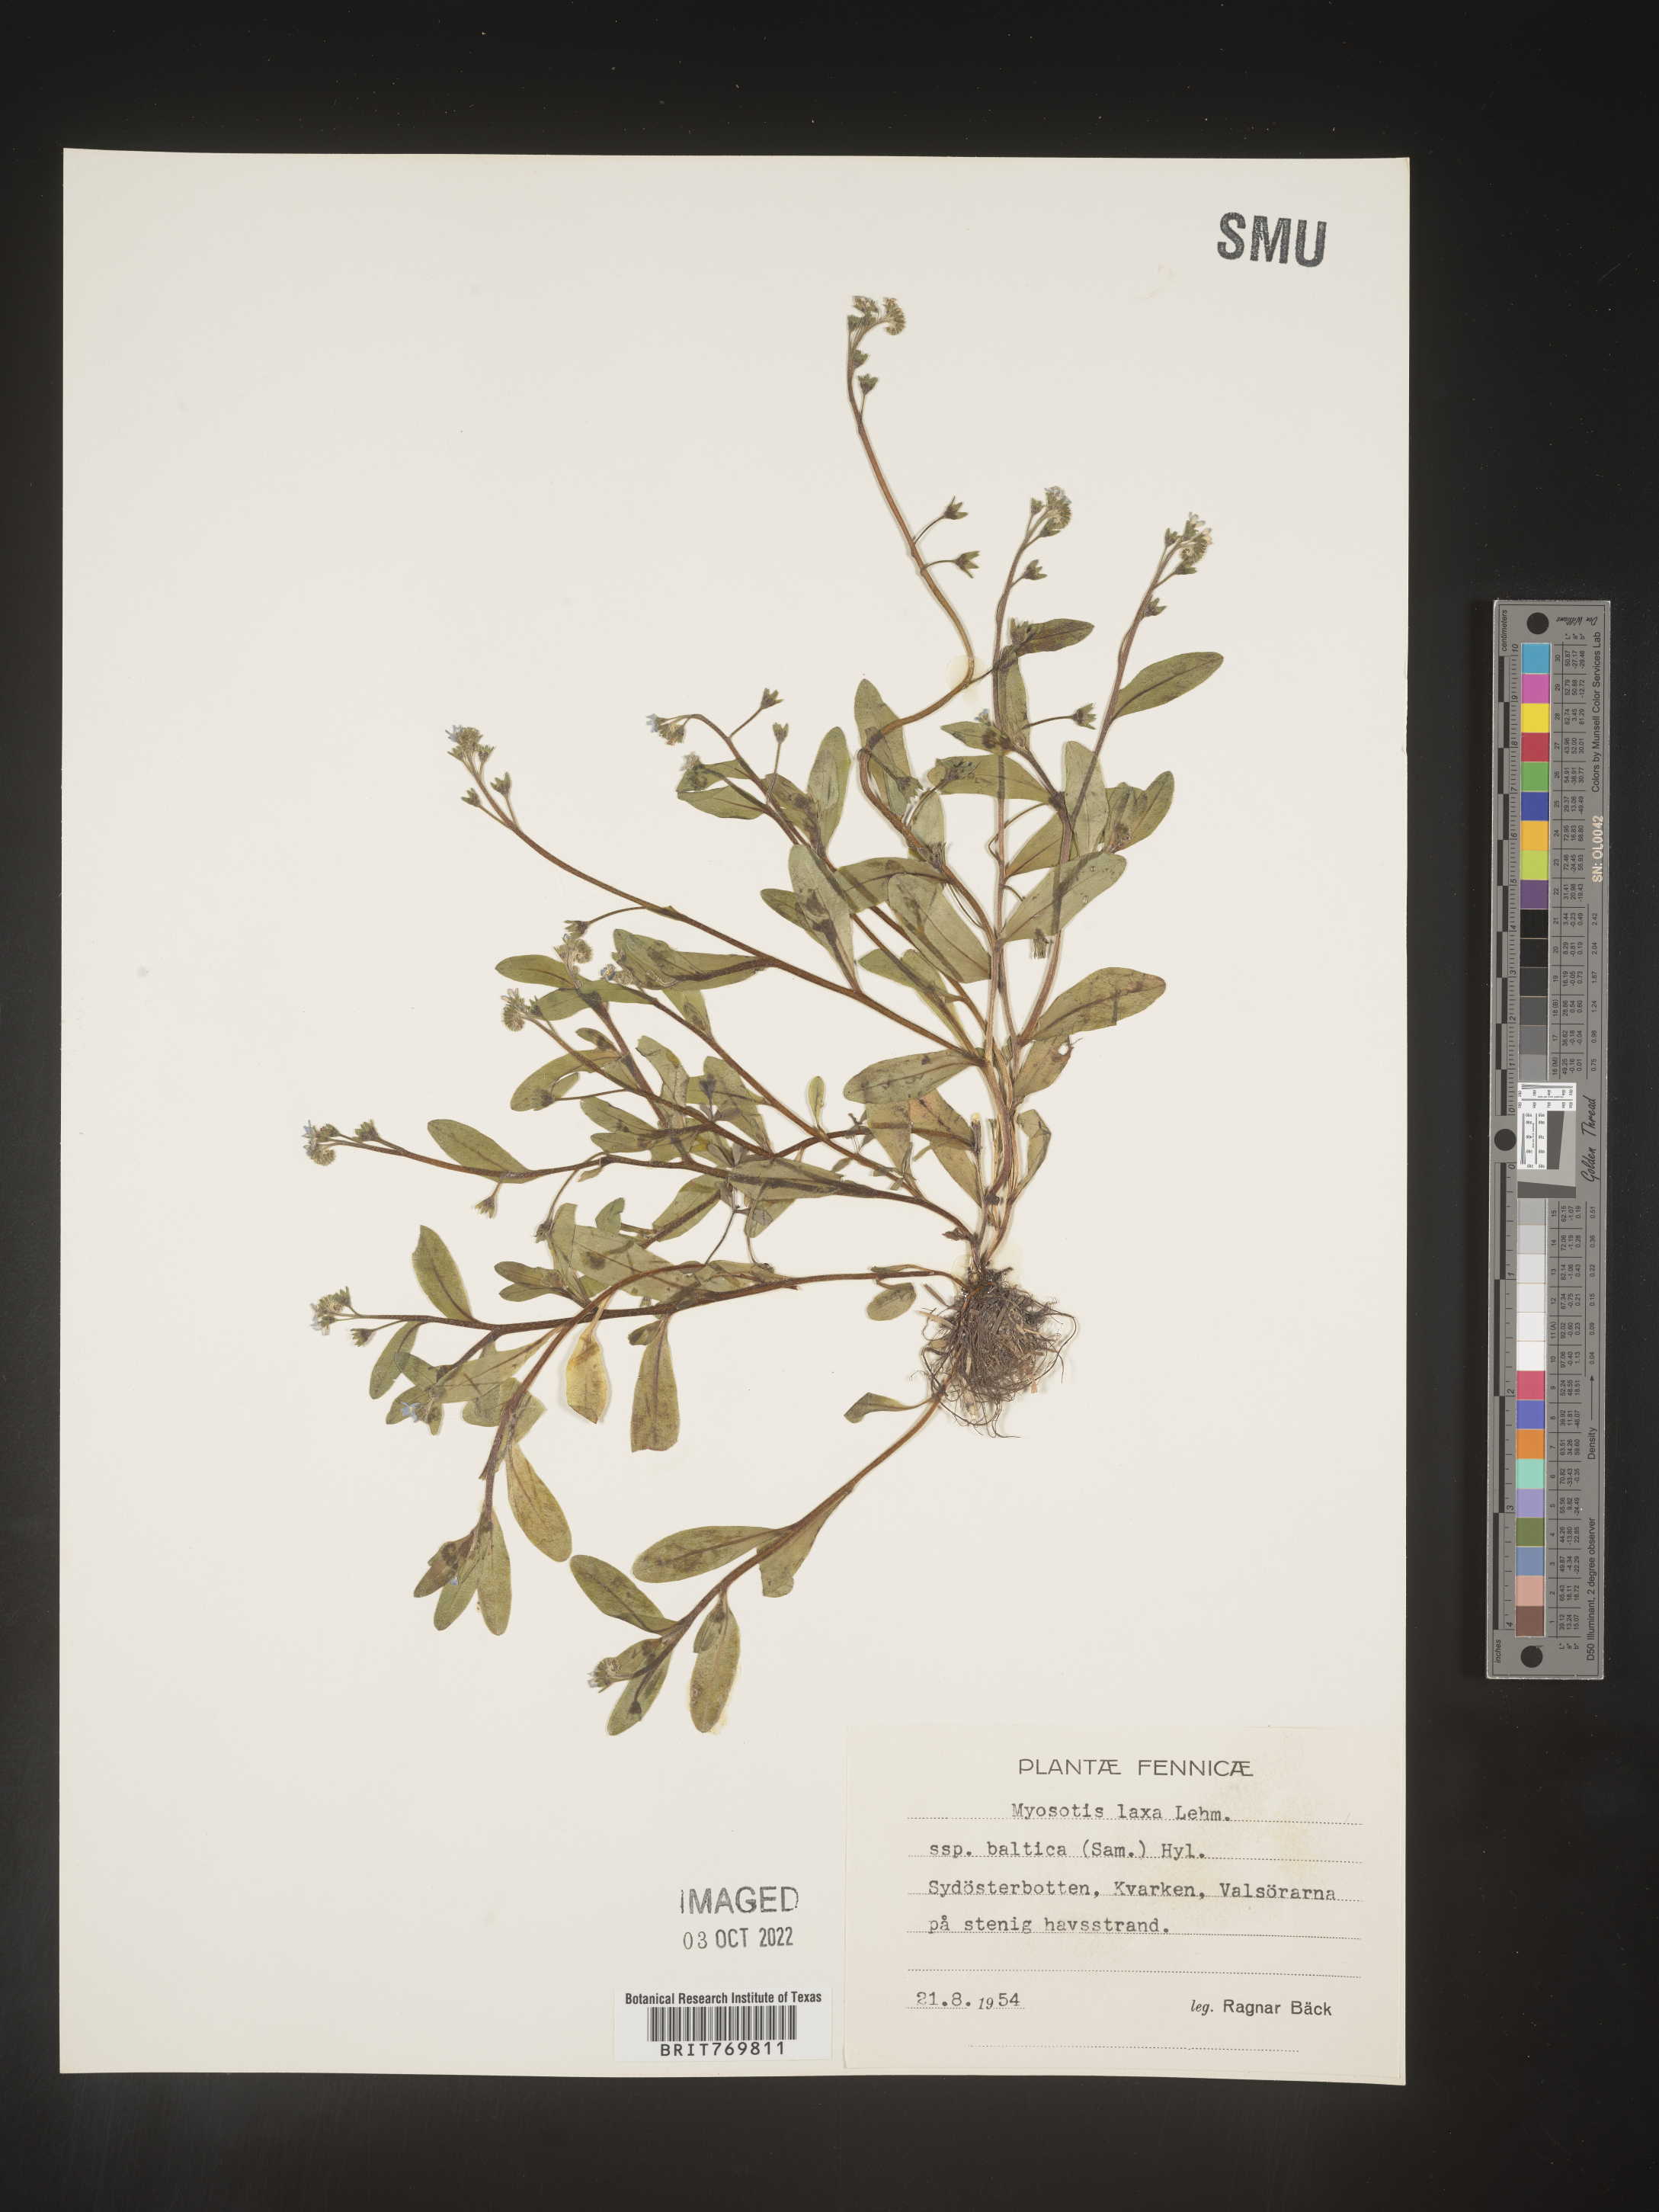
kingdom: Plantae
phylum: Tracheophyta
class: Magnoliopsida
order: Boraginales
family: Boraginaceae
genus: Myosotis
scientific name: Myosotis
